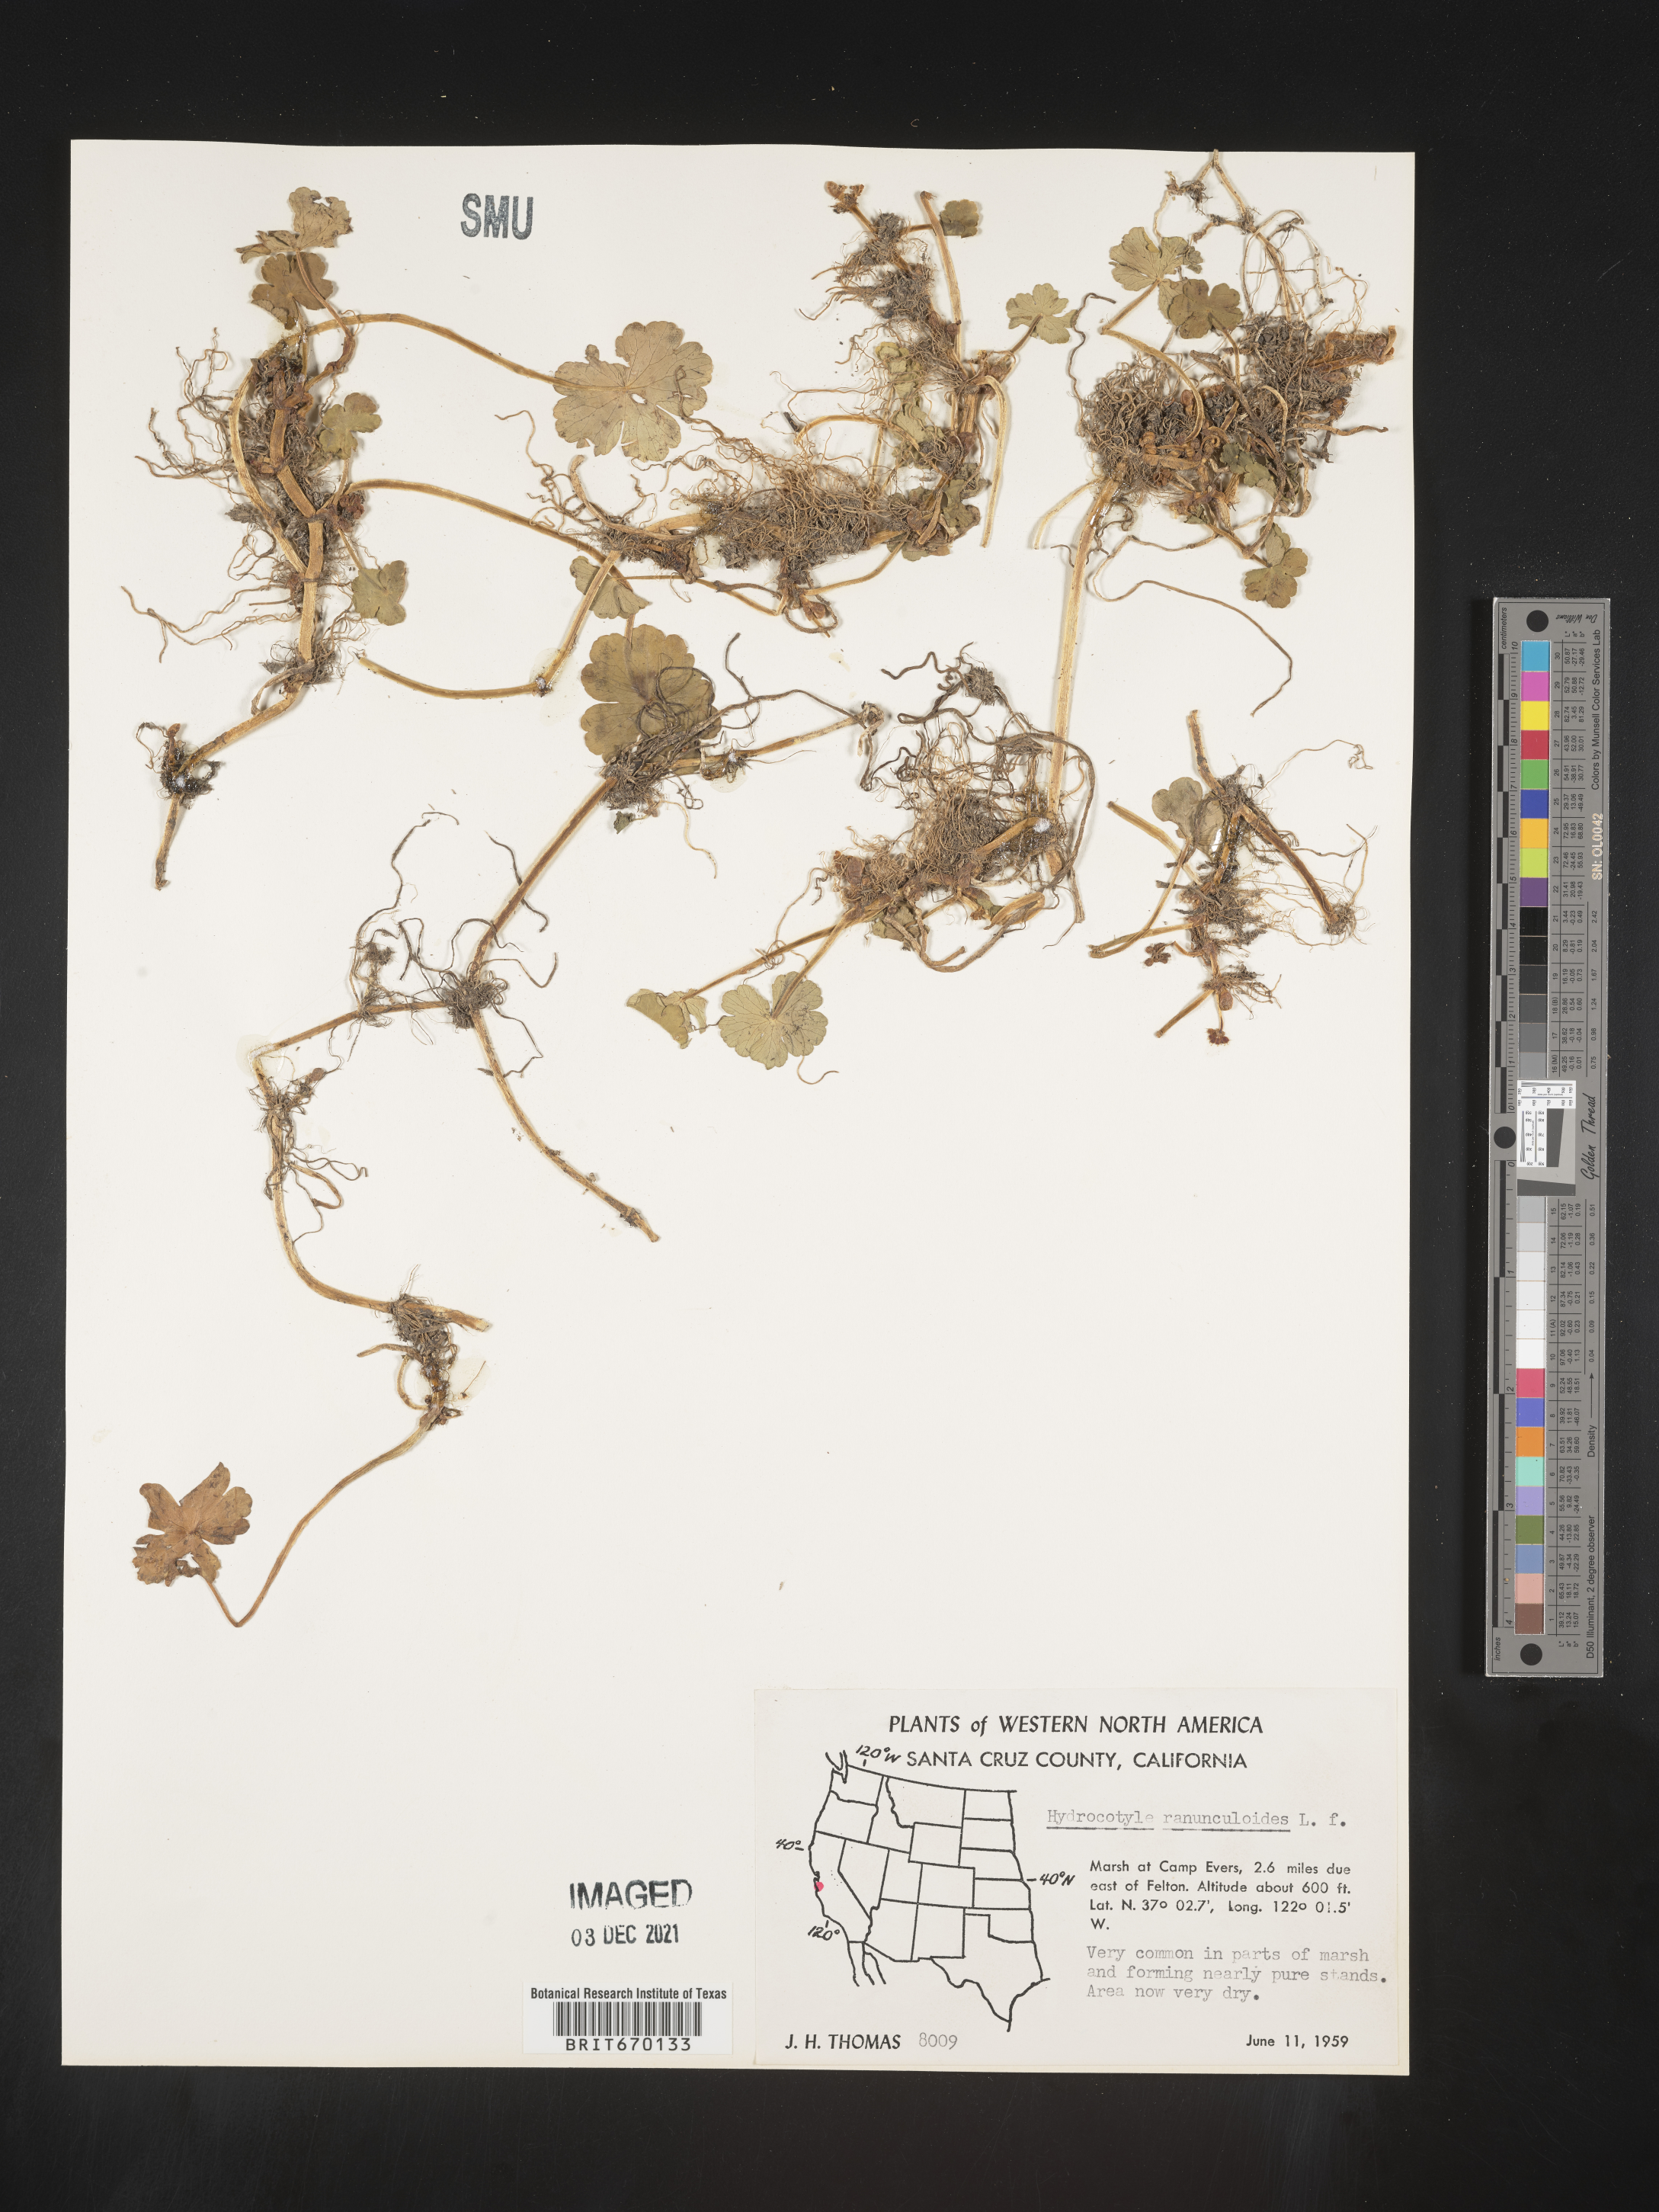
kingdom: Plantae
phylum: Tracheophyta
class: Magnoliopsida
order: Apiales
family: Araliaceae
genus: Hydrocotyle
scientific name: Hydrocotyle ranunculoides
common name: Floating pennywort
